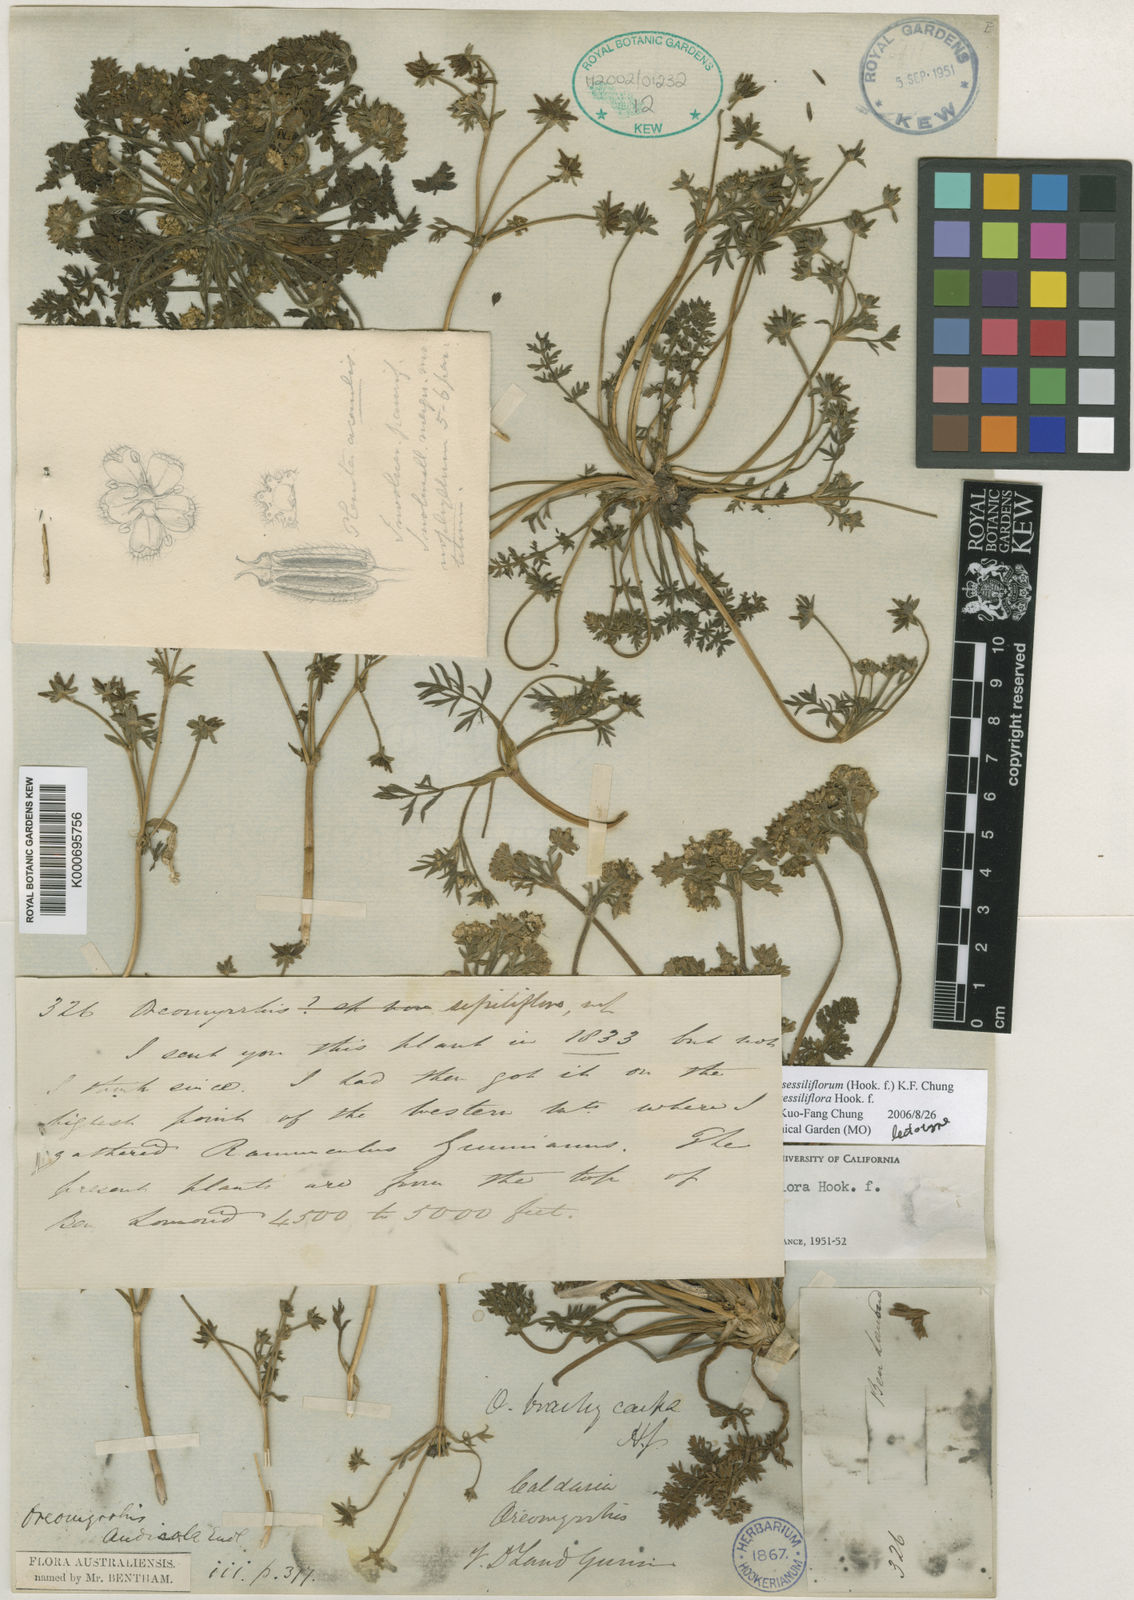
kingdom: Plantae
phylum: Tracheophyta
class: Magnoliopsida
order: Apiales
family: Apiaceae
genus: Chaerophyllum
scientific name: Chaerophyllum sessiliflorum
